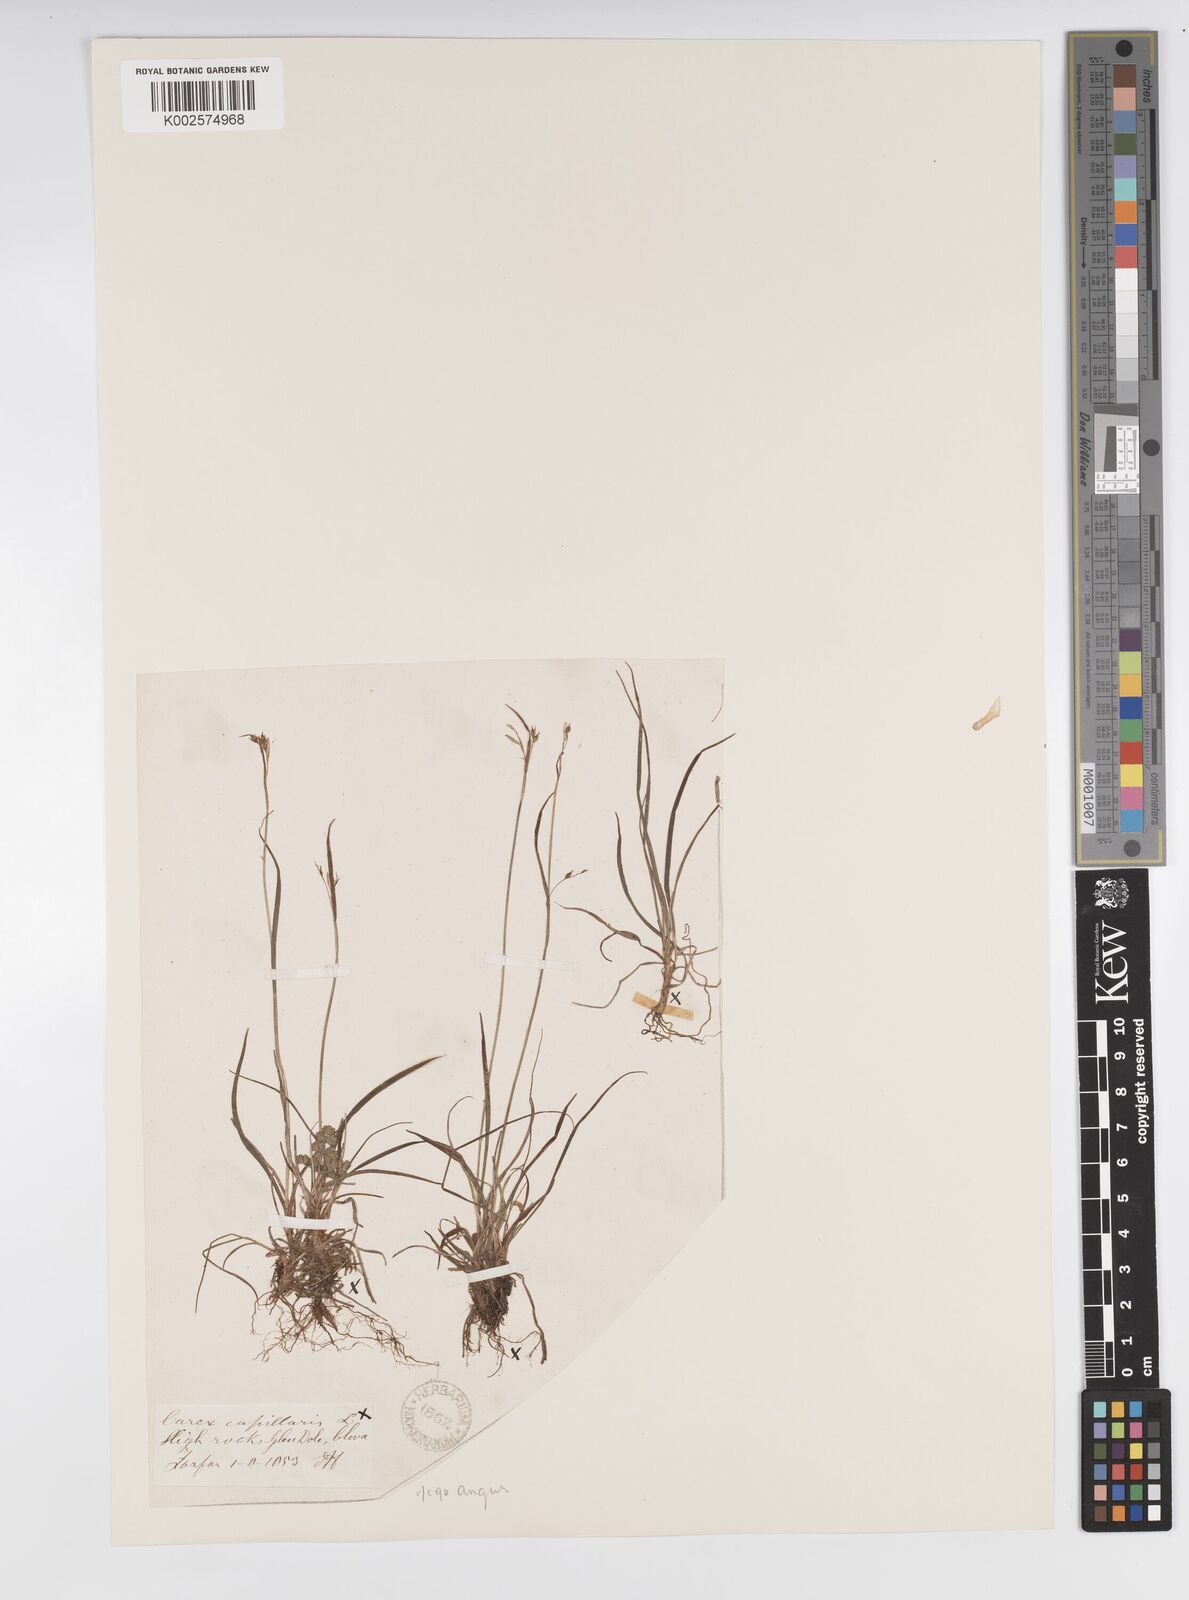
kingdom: Plantae
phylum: Tracheophyta
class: Liliopsida
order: Poales
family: Cyperaceae
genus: Carex
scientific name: Carex capillaris
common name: Hair sedge
